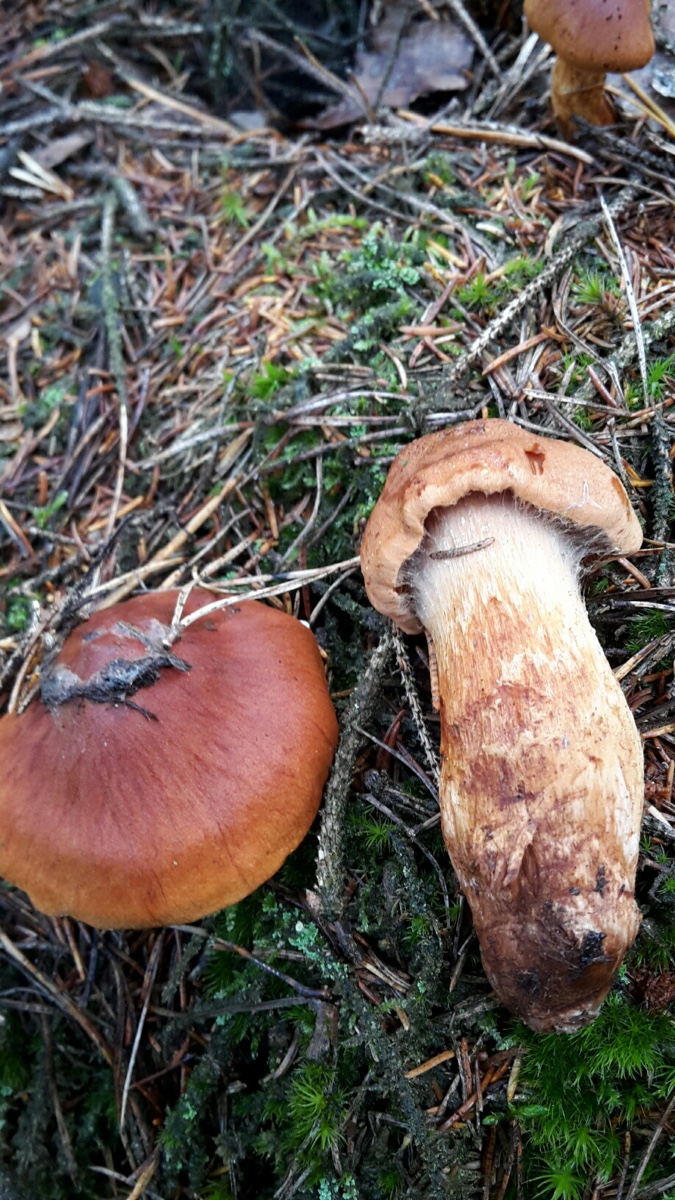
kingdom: Fungi
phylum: Basidiomycota
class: Agaricomycetes
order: Agaricales
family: Cortinariaceae
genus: Cortinarius
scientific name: Cortinarius rubellus
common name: puklet gift-slørhat
